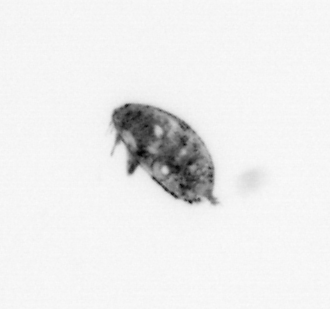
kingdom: Animalia
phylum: Arthropoda
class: Maxillopoda
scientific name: Maxillopoda
